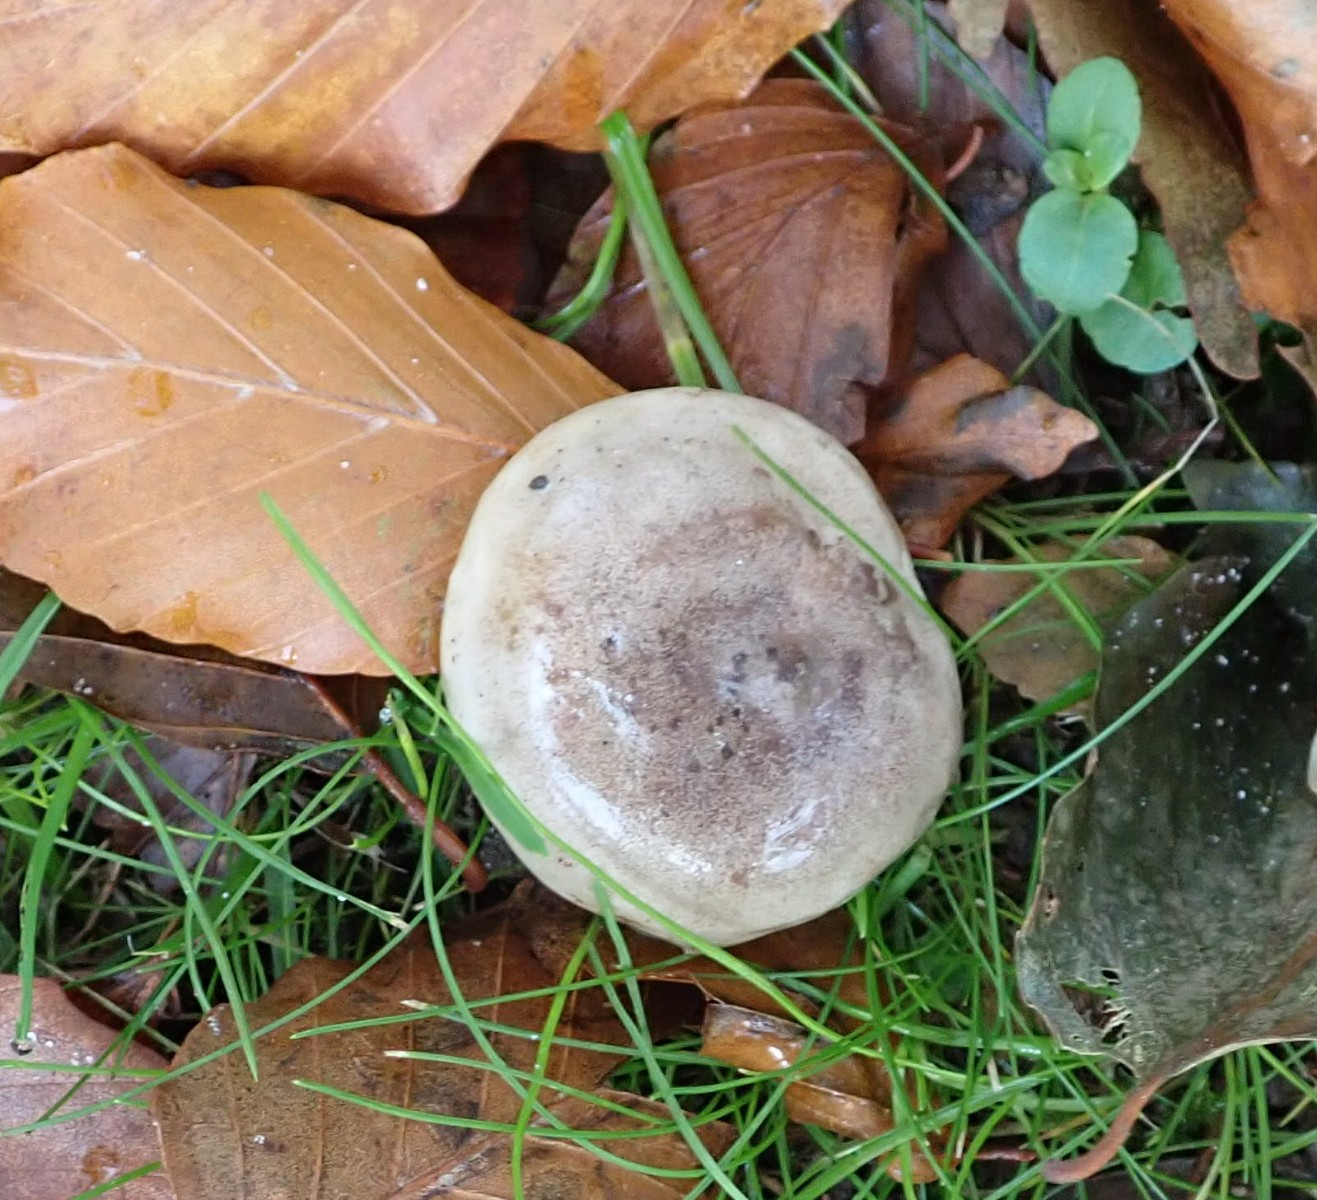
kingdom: Fungi
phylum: Basidiomycota
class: Agaricomycetes
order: Russulales
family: Russulaceae
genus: Lactarius
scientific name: Lactarius blennius
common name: dråbeplettet mælkehat
